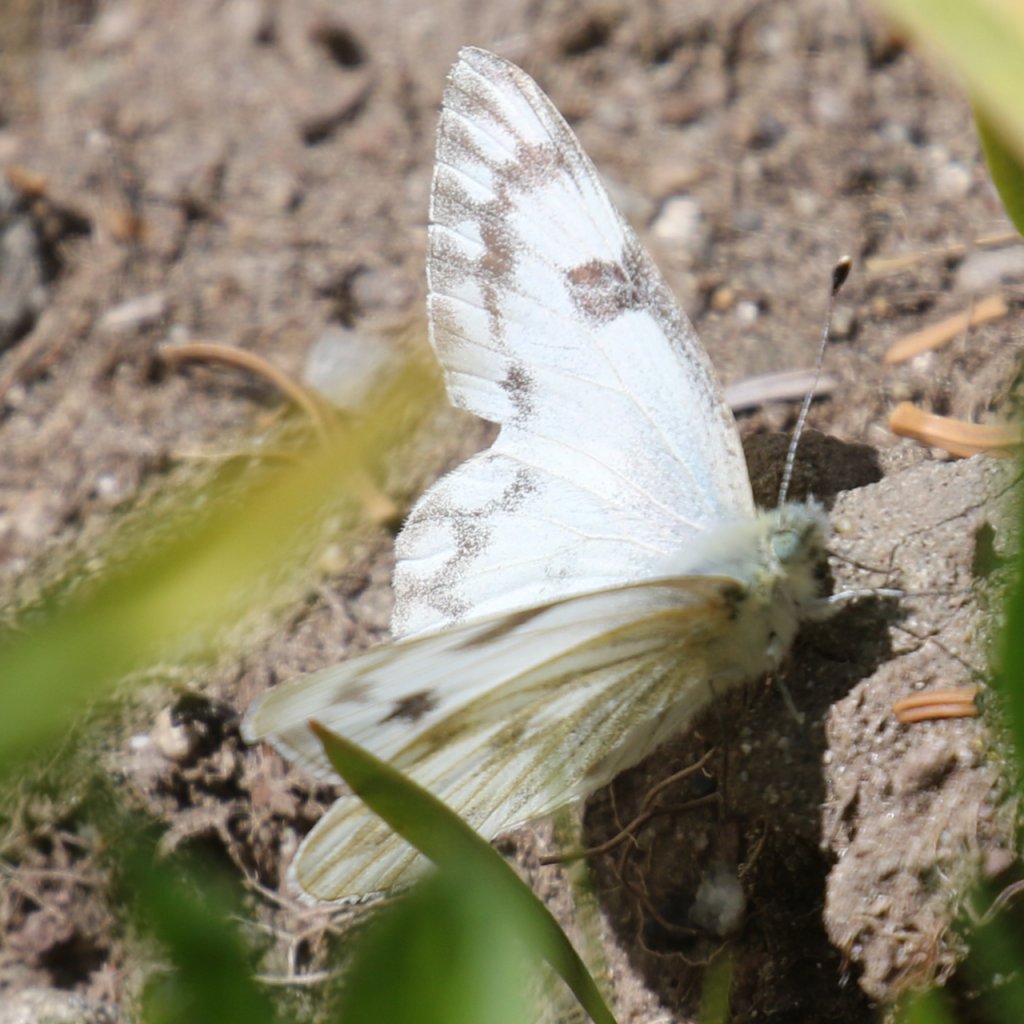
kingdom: Animalia
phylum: Arthropoda
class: Insecta
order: Lepidoptera
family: Pieridae
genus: Pontia
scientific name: Pontia occidentalis
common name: Western White
